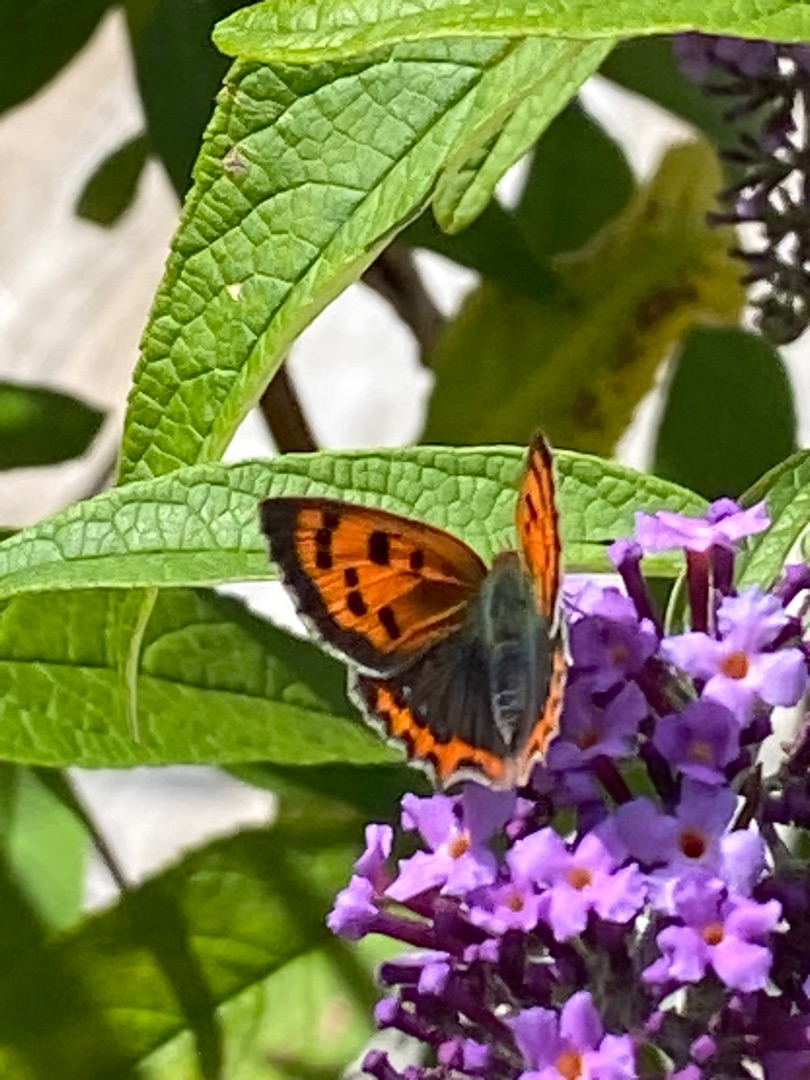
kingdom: Animalia
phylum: Arthropoda
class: Insecta
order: Lepidoptera
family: Lycaenidae
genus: Lycaena
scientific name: Lycaena phlaeas
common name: Lille ildfugl
